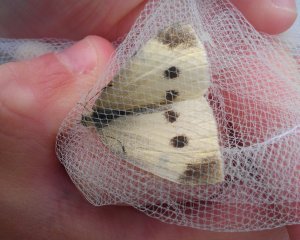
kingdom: Animalia
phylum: Arthropoda
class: Insecta
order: Lepidoptera
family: Pieridae
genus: Pieris
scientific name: Pieris rapae
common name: Cabbage White
